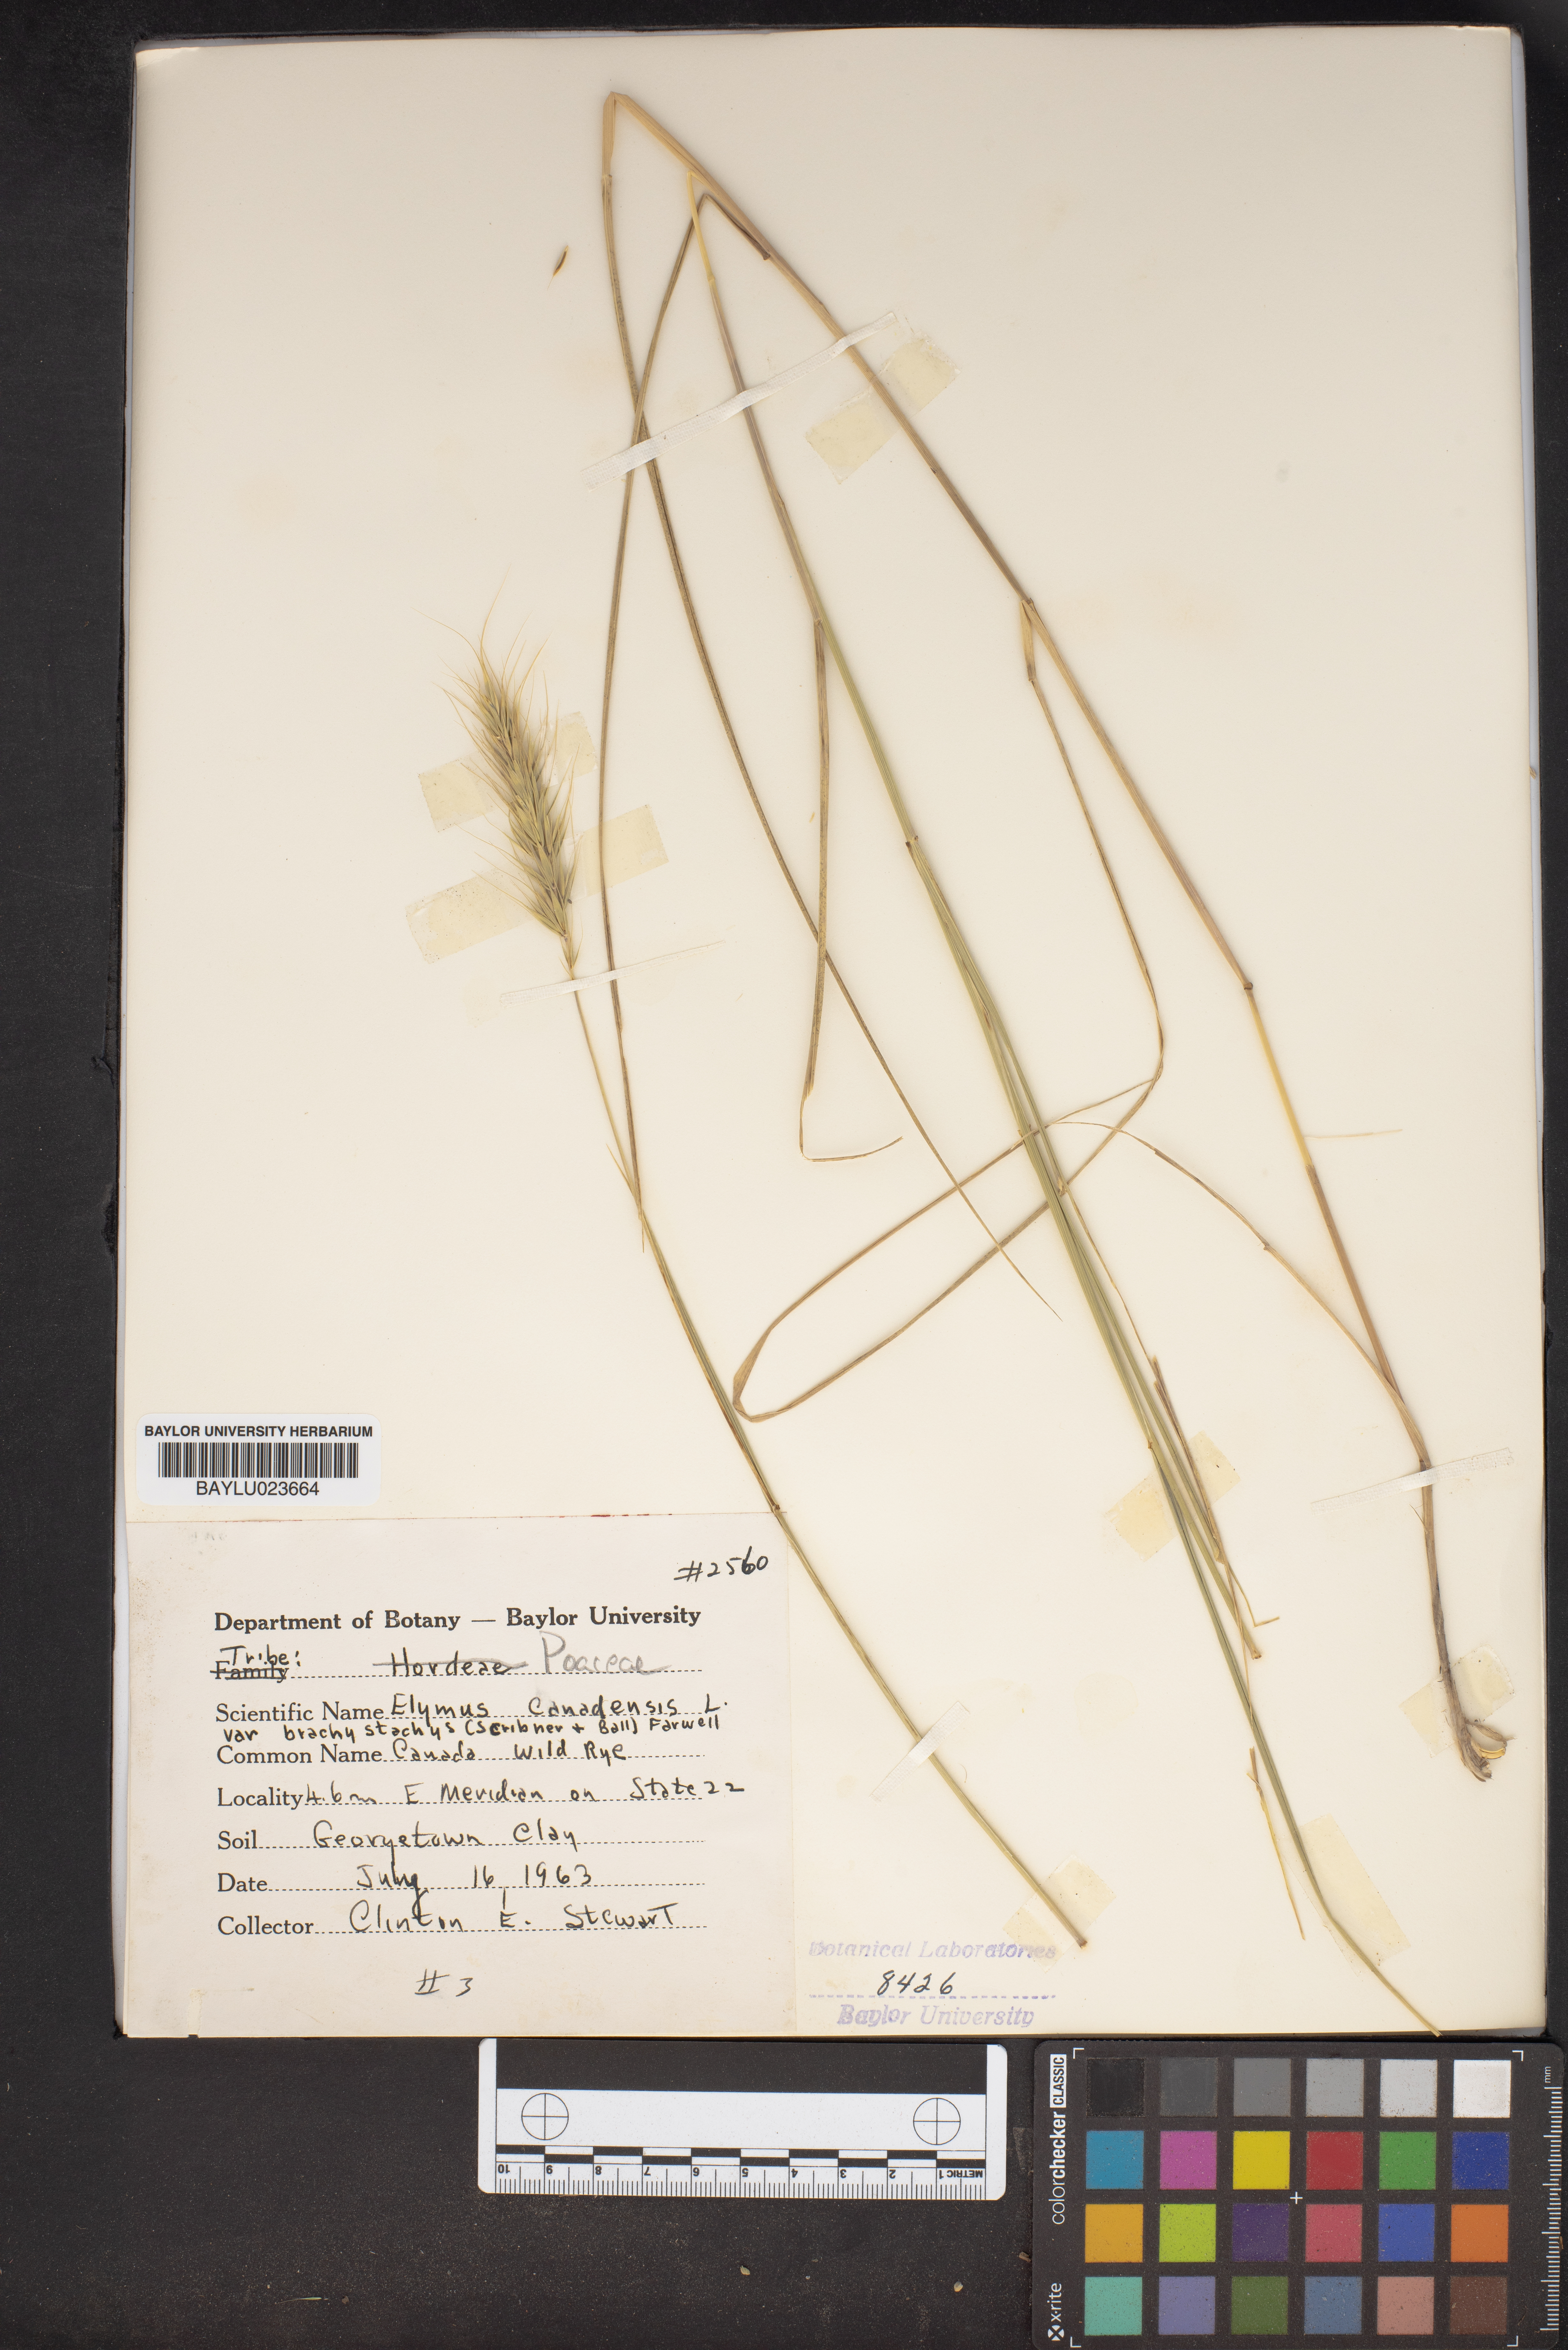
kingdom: Plantae
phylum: Tracheophyta
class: Liliopsida
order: Poales
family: Poaceae
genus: Elymus
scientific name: Elymus canadensis
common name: Canada wild rye
